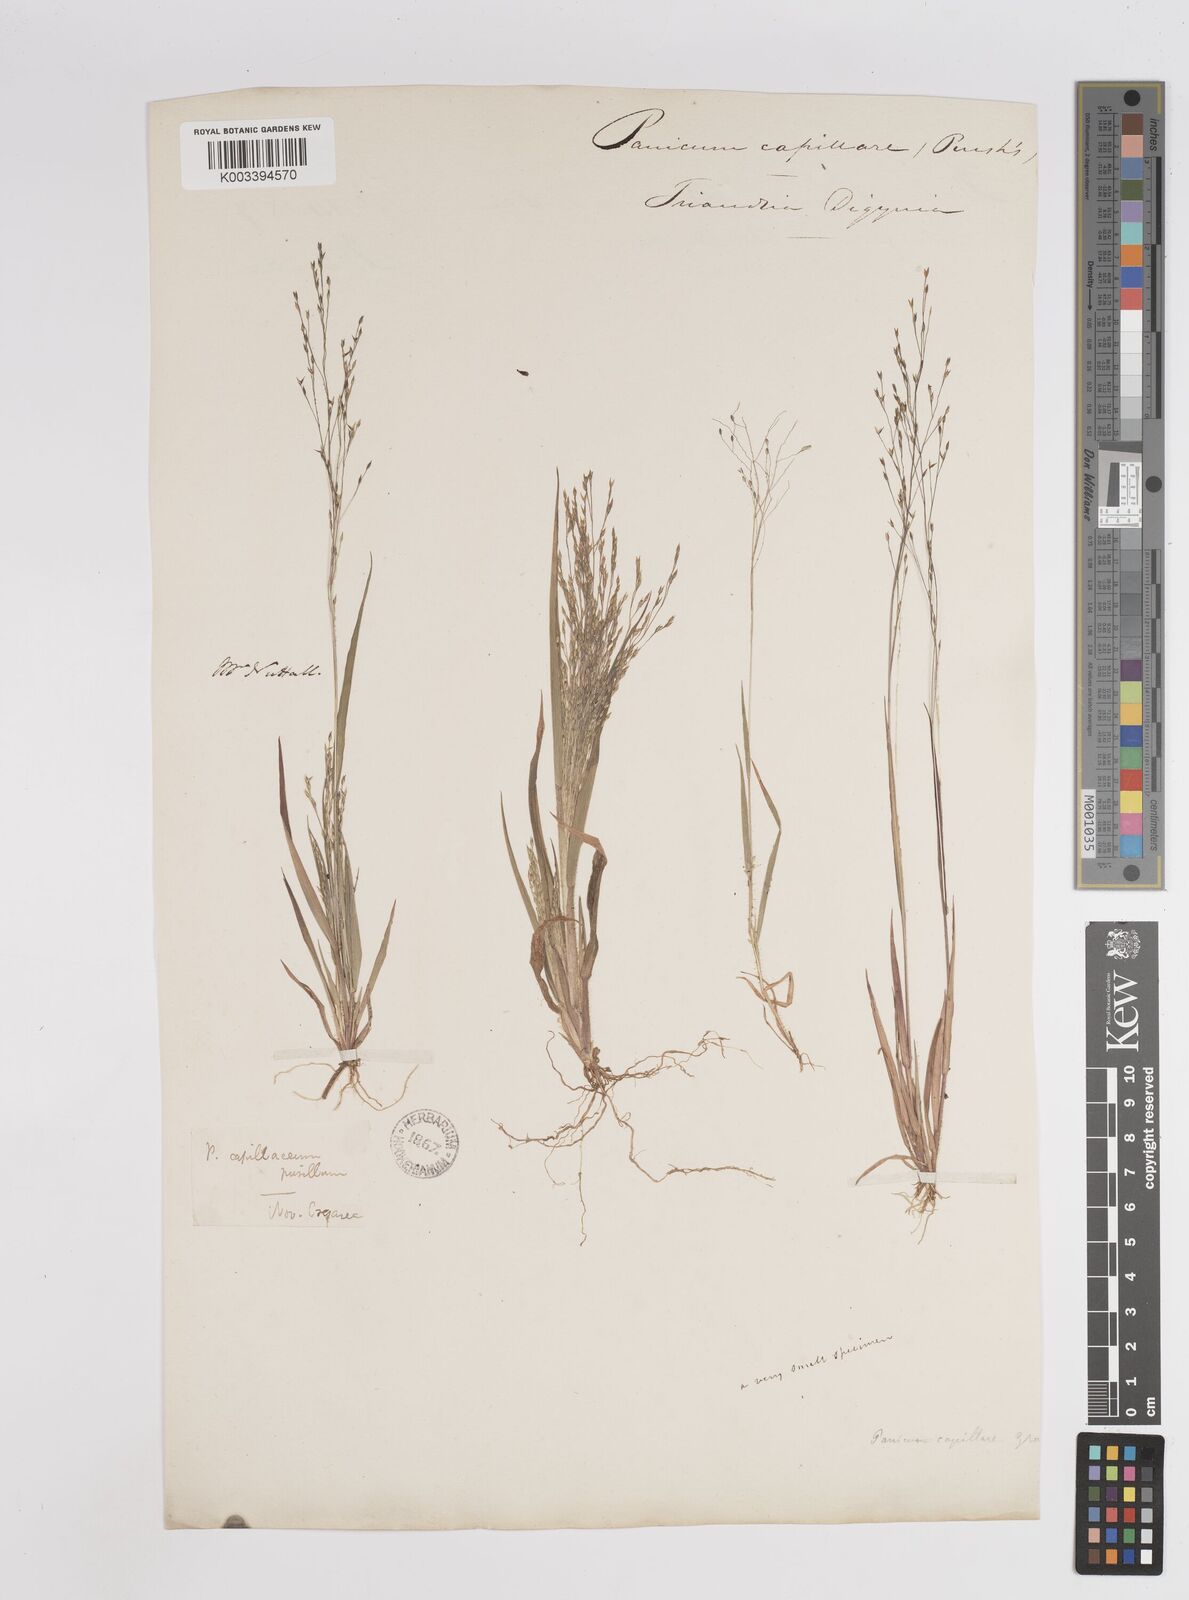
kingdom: Plantae
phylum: Tracheophyta
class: Liliopsida
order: Poales
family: Poaceae
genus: Panicum
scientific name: Panicum flexile
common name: Wiry panicgrass
